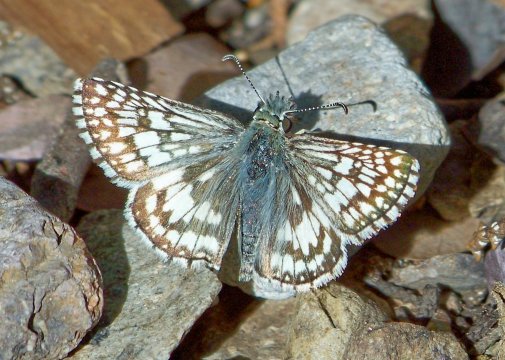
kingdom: Animalia
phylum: Arthropoda
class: Insecta
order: Lepidoptera
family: Hesperiidae
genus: Pyrgus
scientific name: Pyrgus communis
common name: White Checkered-Skipper
